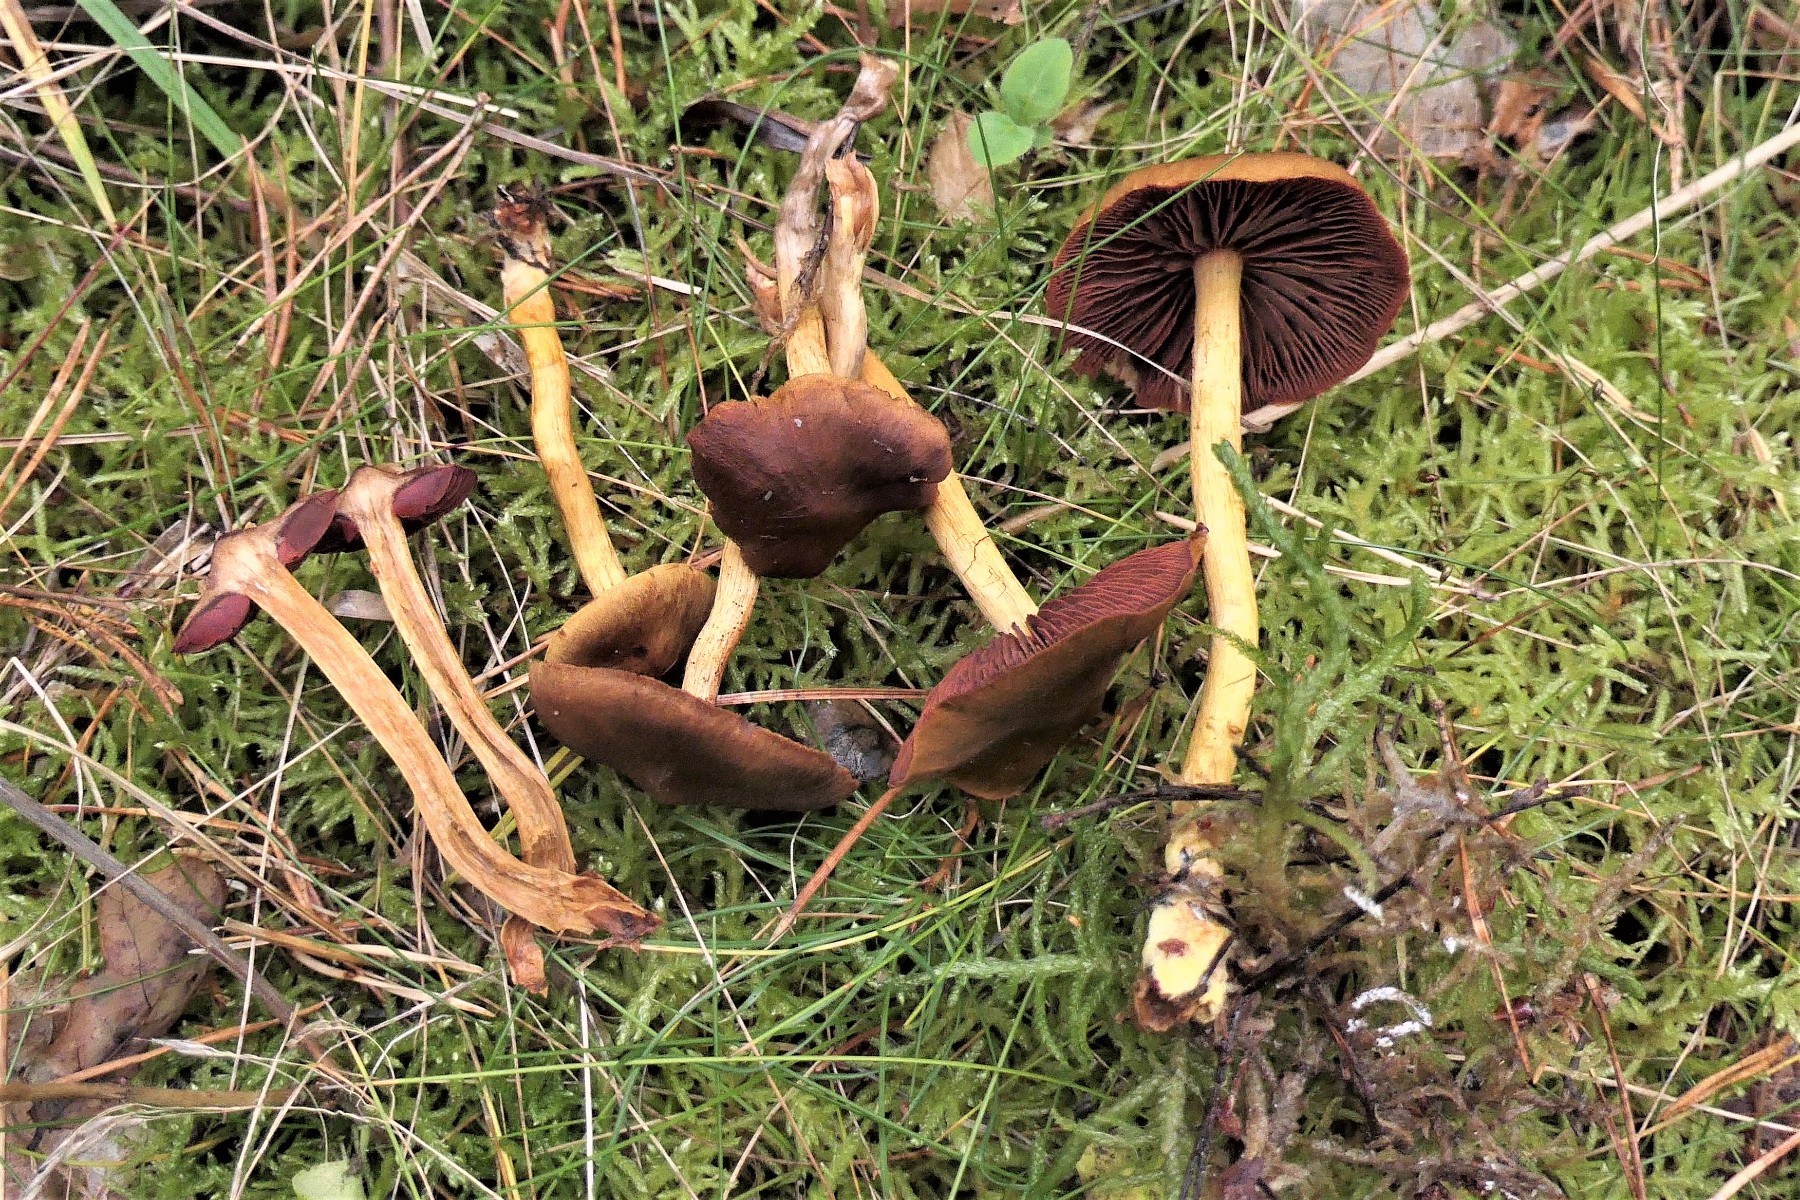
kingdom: Fungi
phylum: Basidiomycota
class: Agaricomycetes
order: Agaricales
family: Cortinariaceae
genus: Cortinarius
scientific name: Cortinarius
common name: cinnoberbladet slørhat
